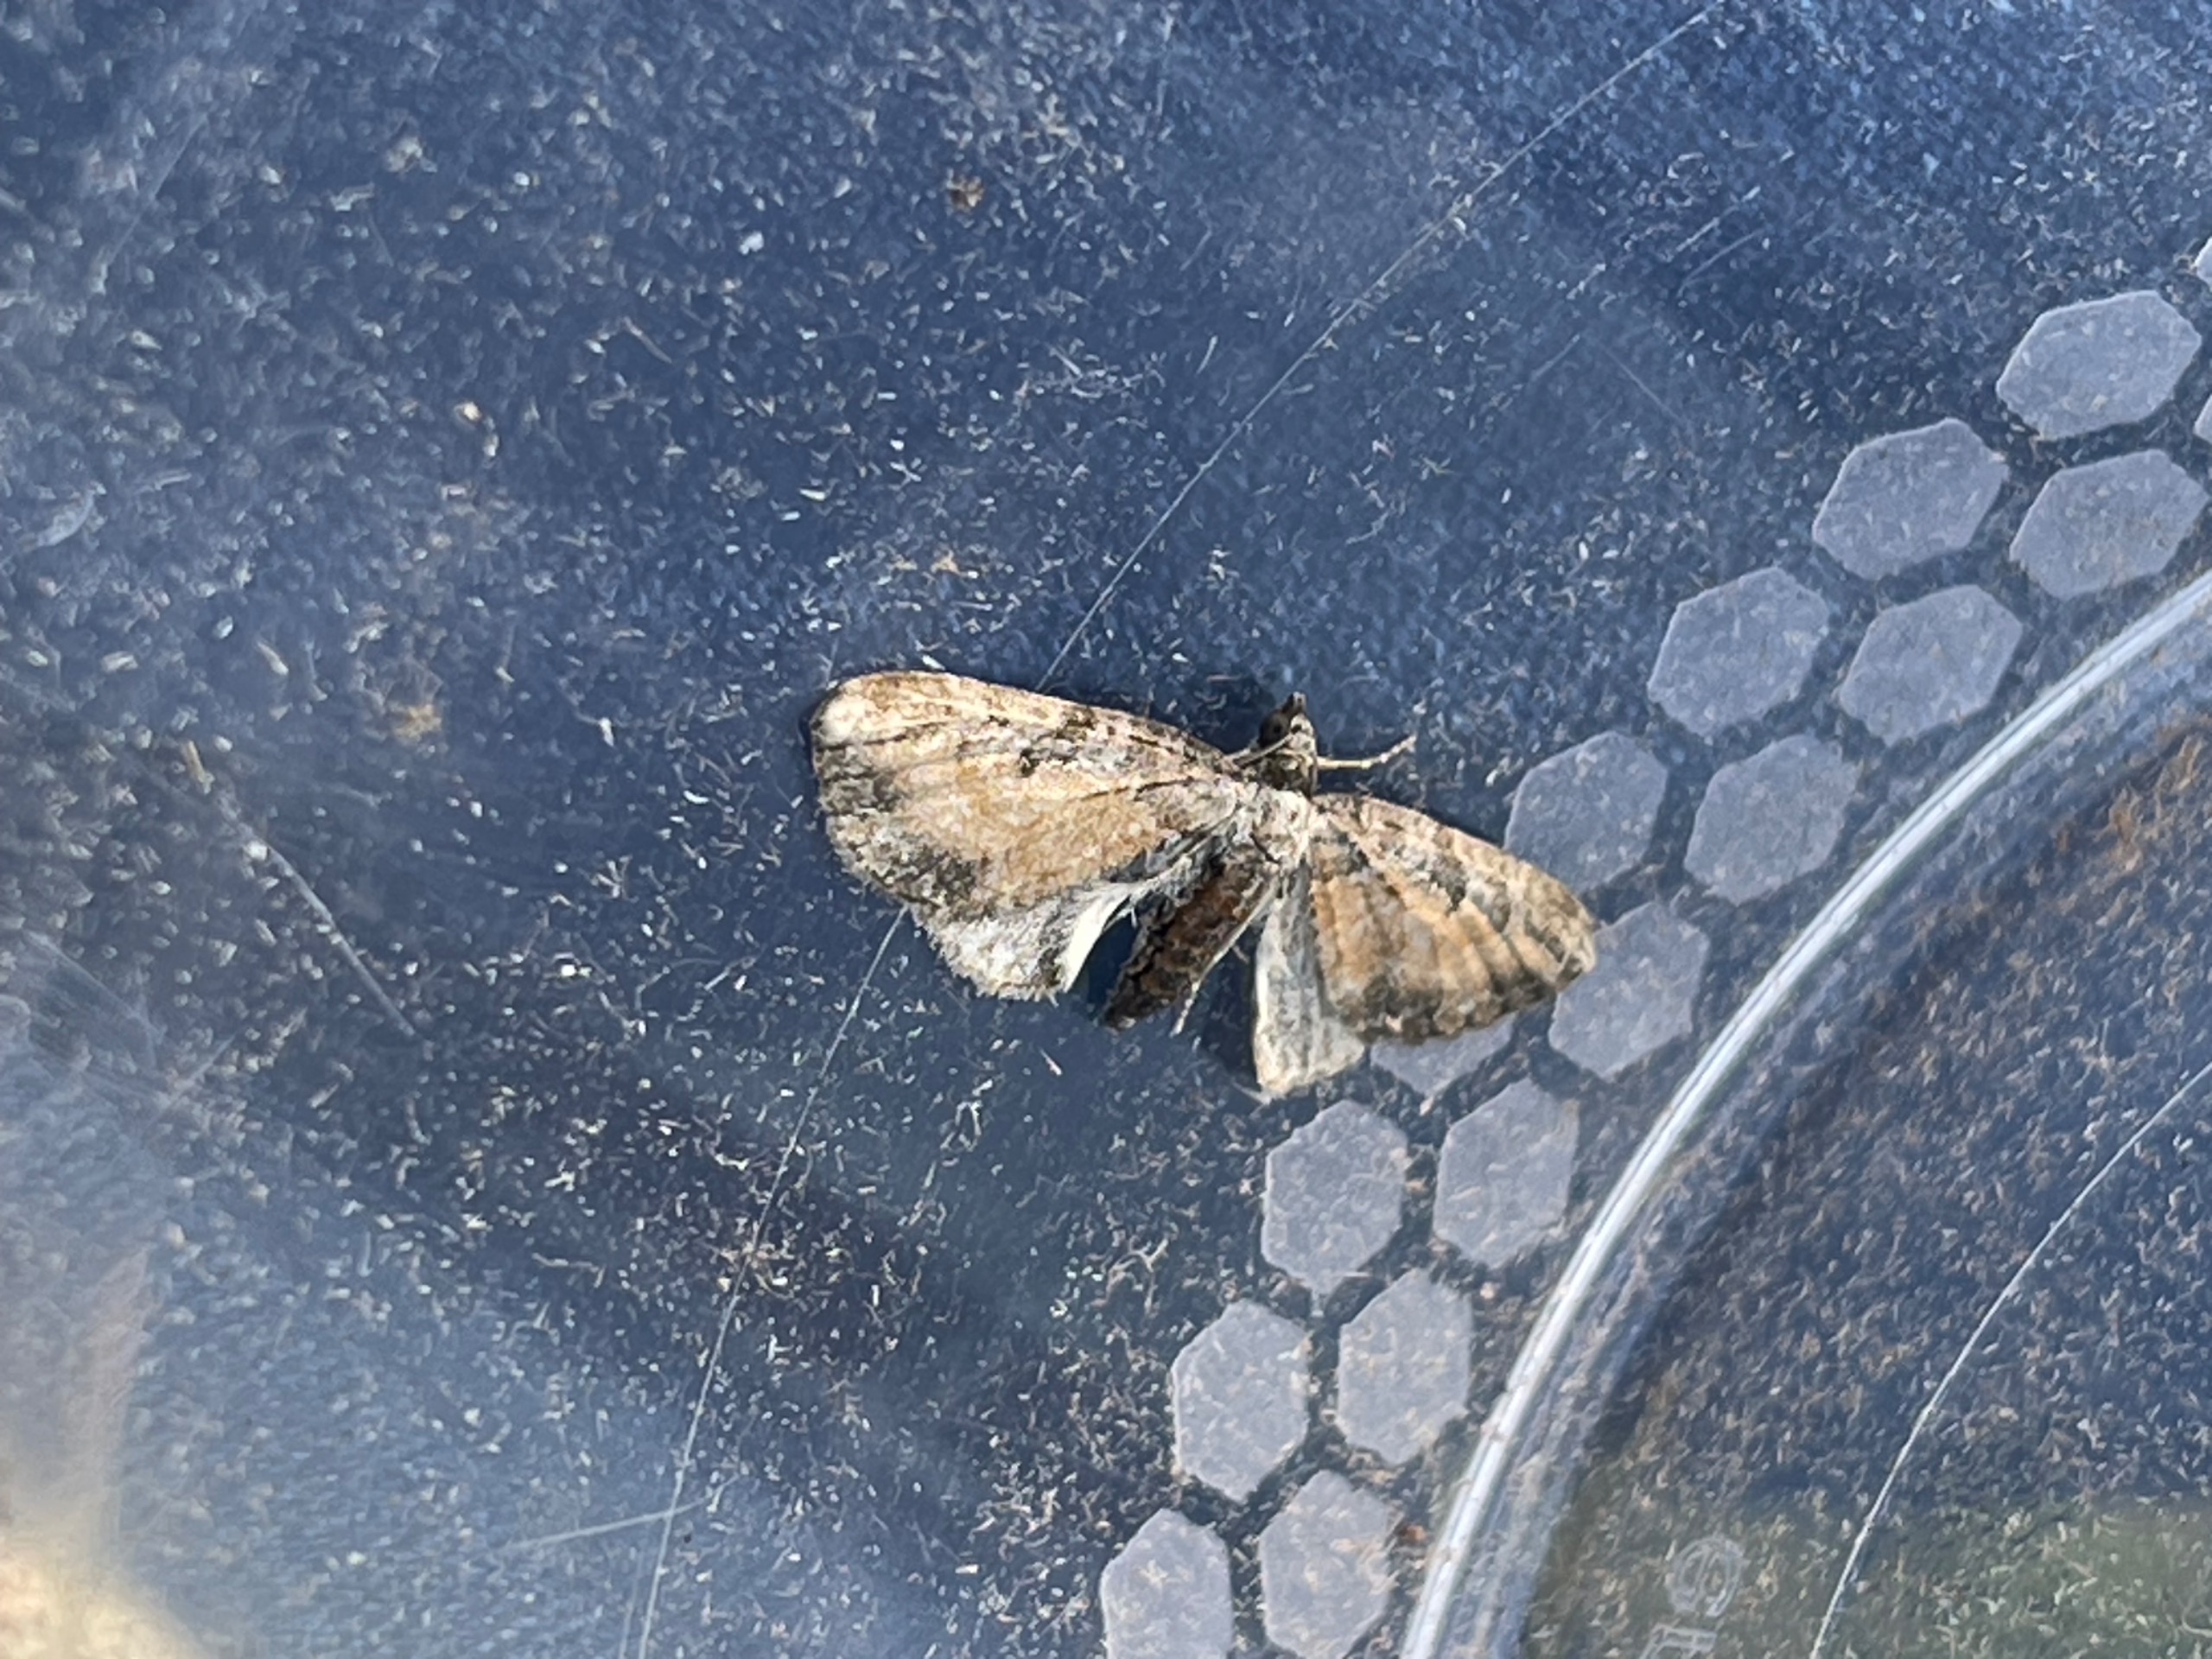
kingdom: Animalia
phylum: Arthropoda
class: Insecta
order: Lepidoptera
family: Geometridae
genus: Eupithecia
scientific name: Eupithecia icterata
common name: Røllike-dværgmåler
